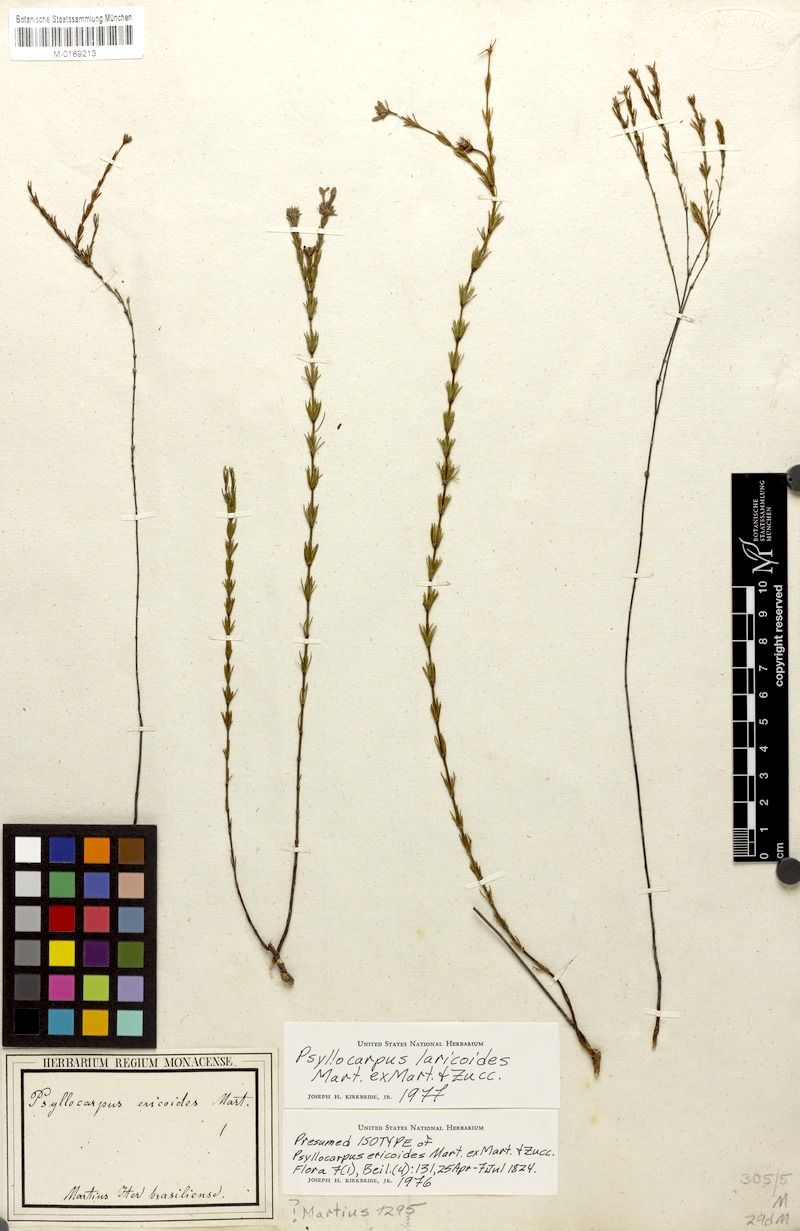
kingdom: Plantae
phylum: Tracheophyta
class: Magnoliopsida
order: Gentianales
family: Rubiaceae
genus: Psyllocarpus
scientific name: Psyllocarpus laricoides
